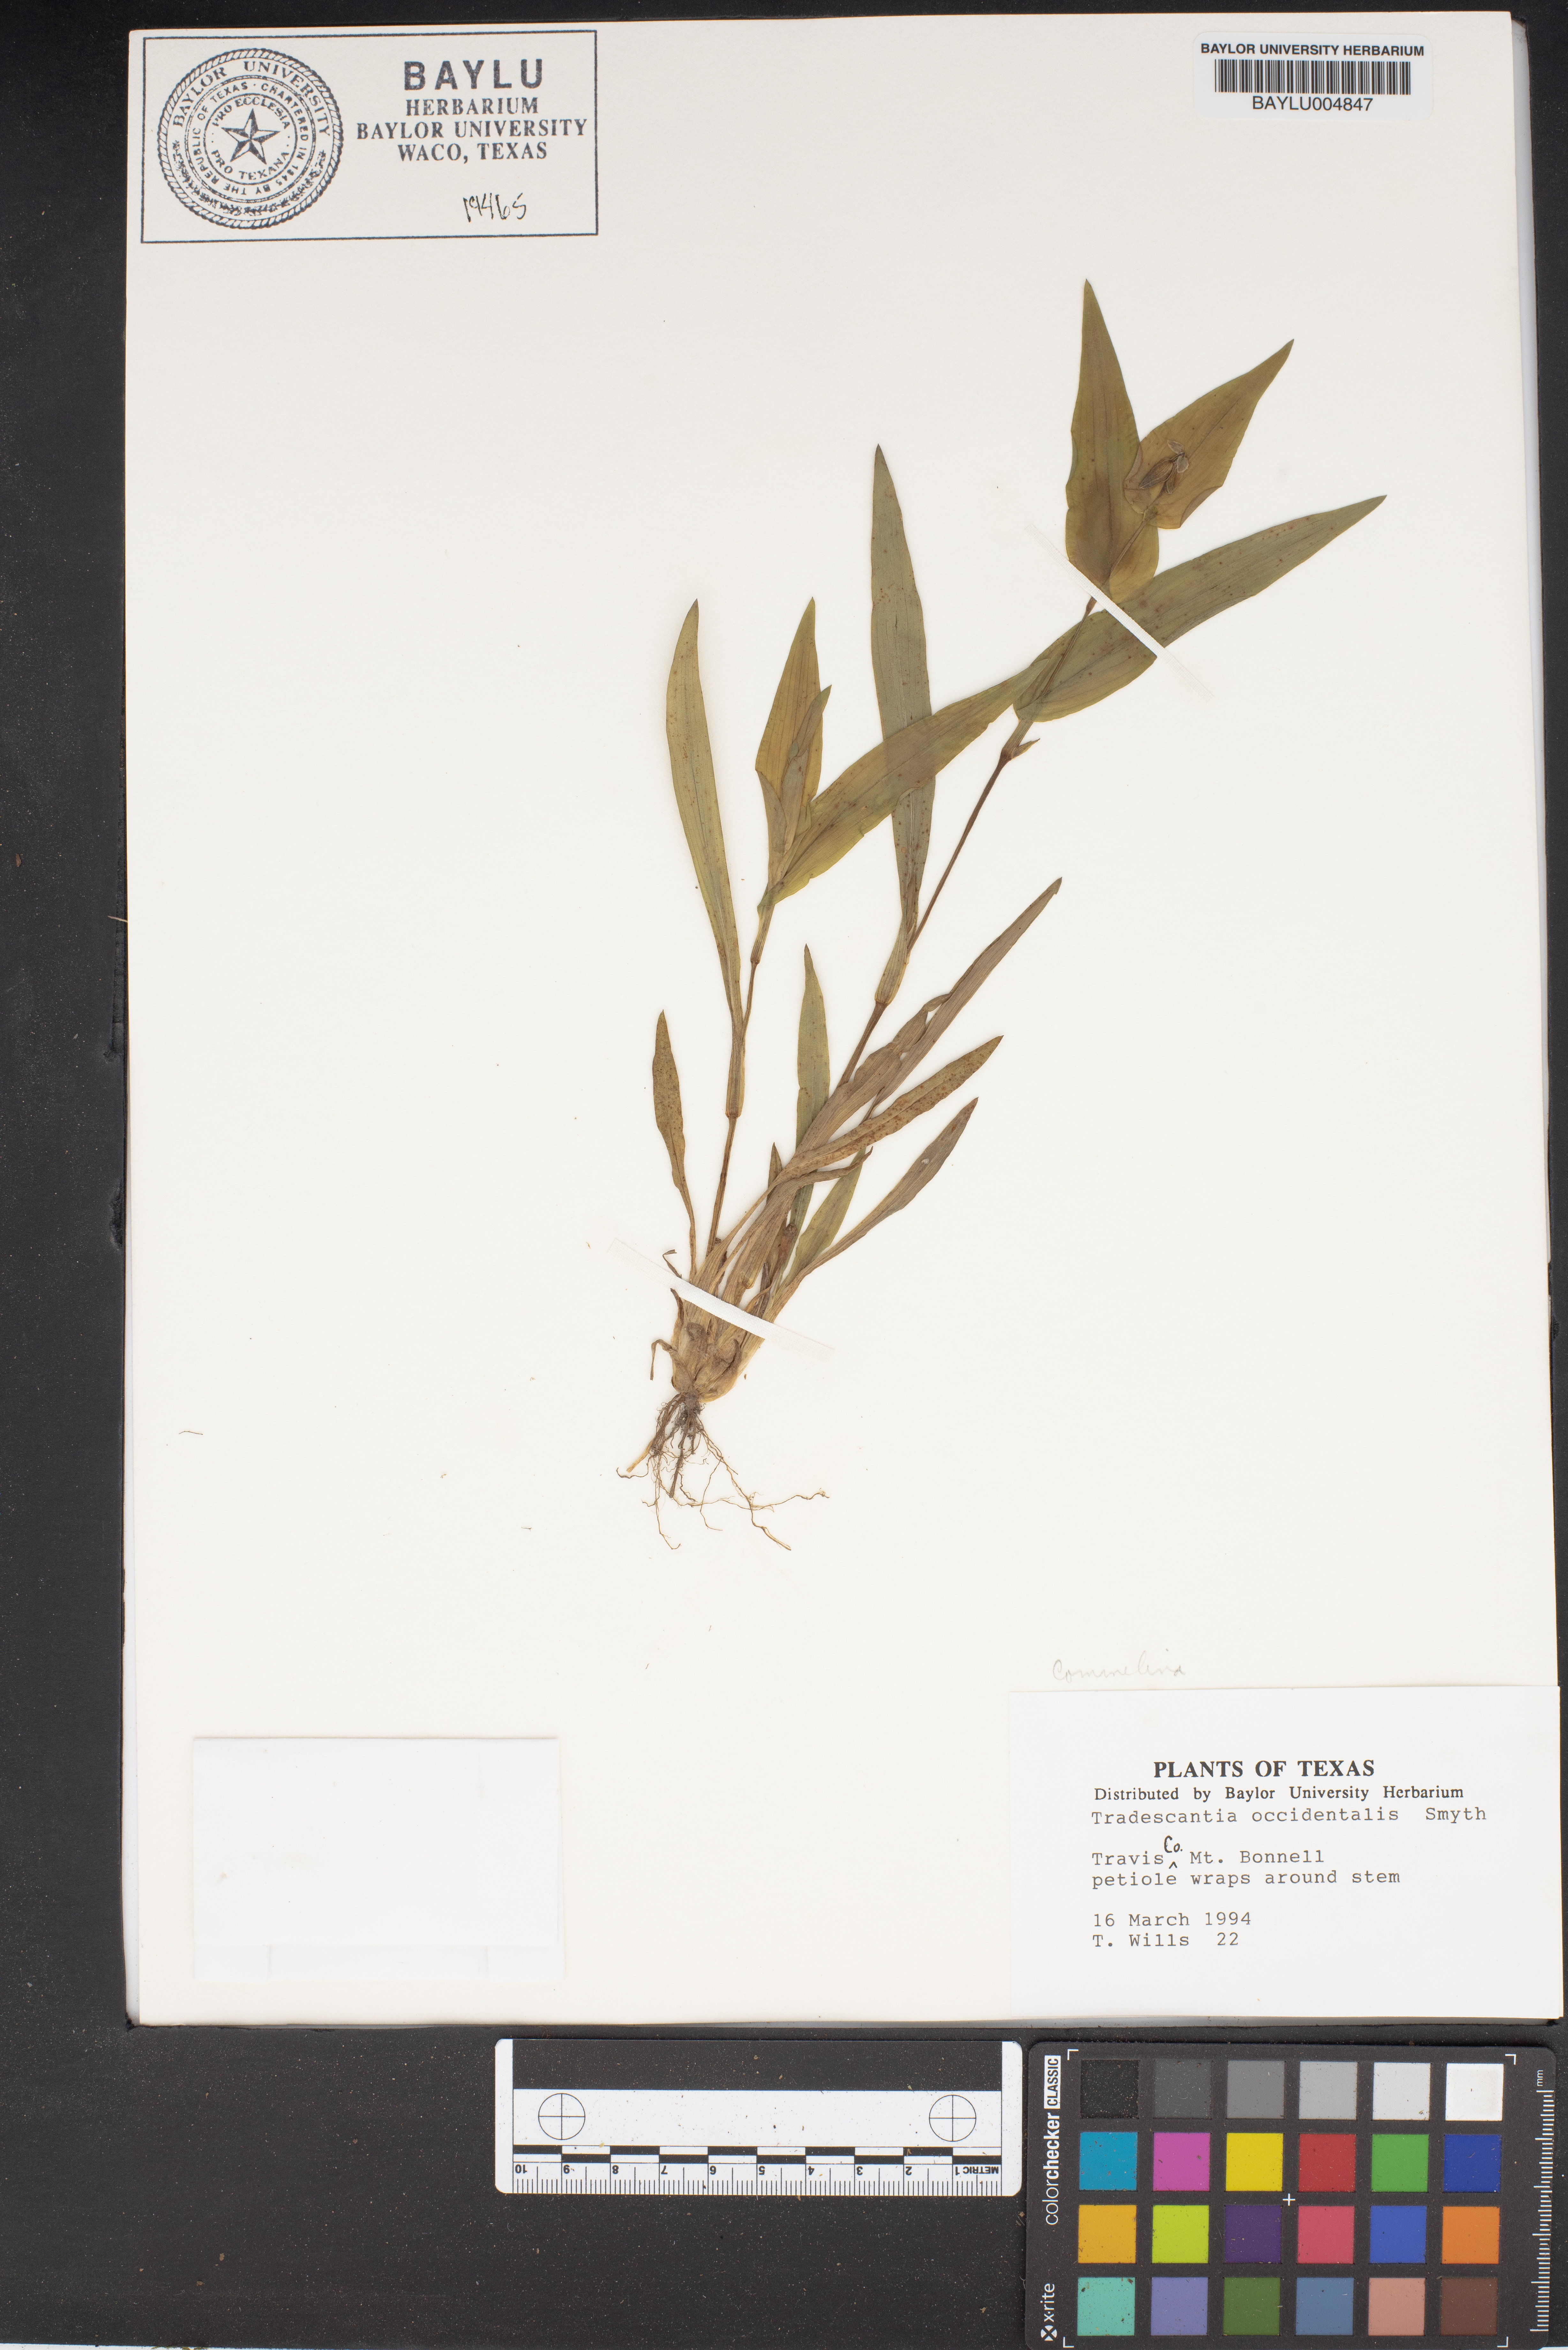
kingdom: Plantae
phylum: Tracheophyta
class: Liliopsida
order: Commelinales
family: Commelinaceae
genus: Tradescantia
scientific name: Tradescantia occidentalis
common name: Prairie spiderwort
